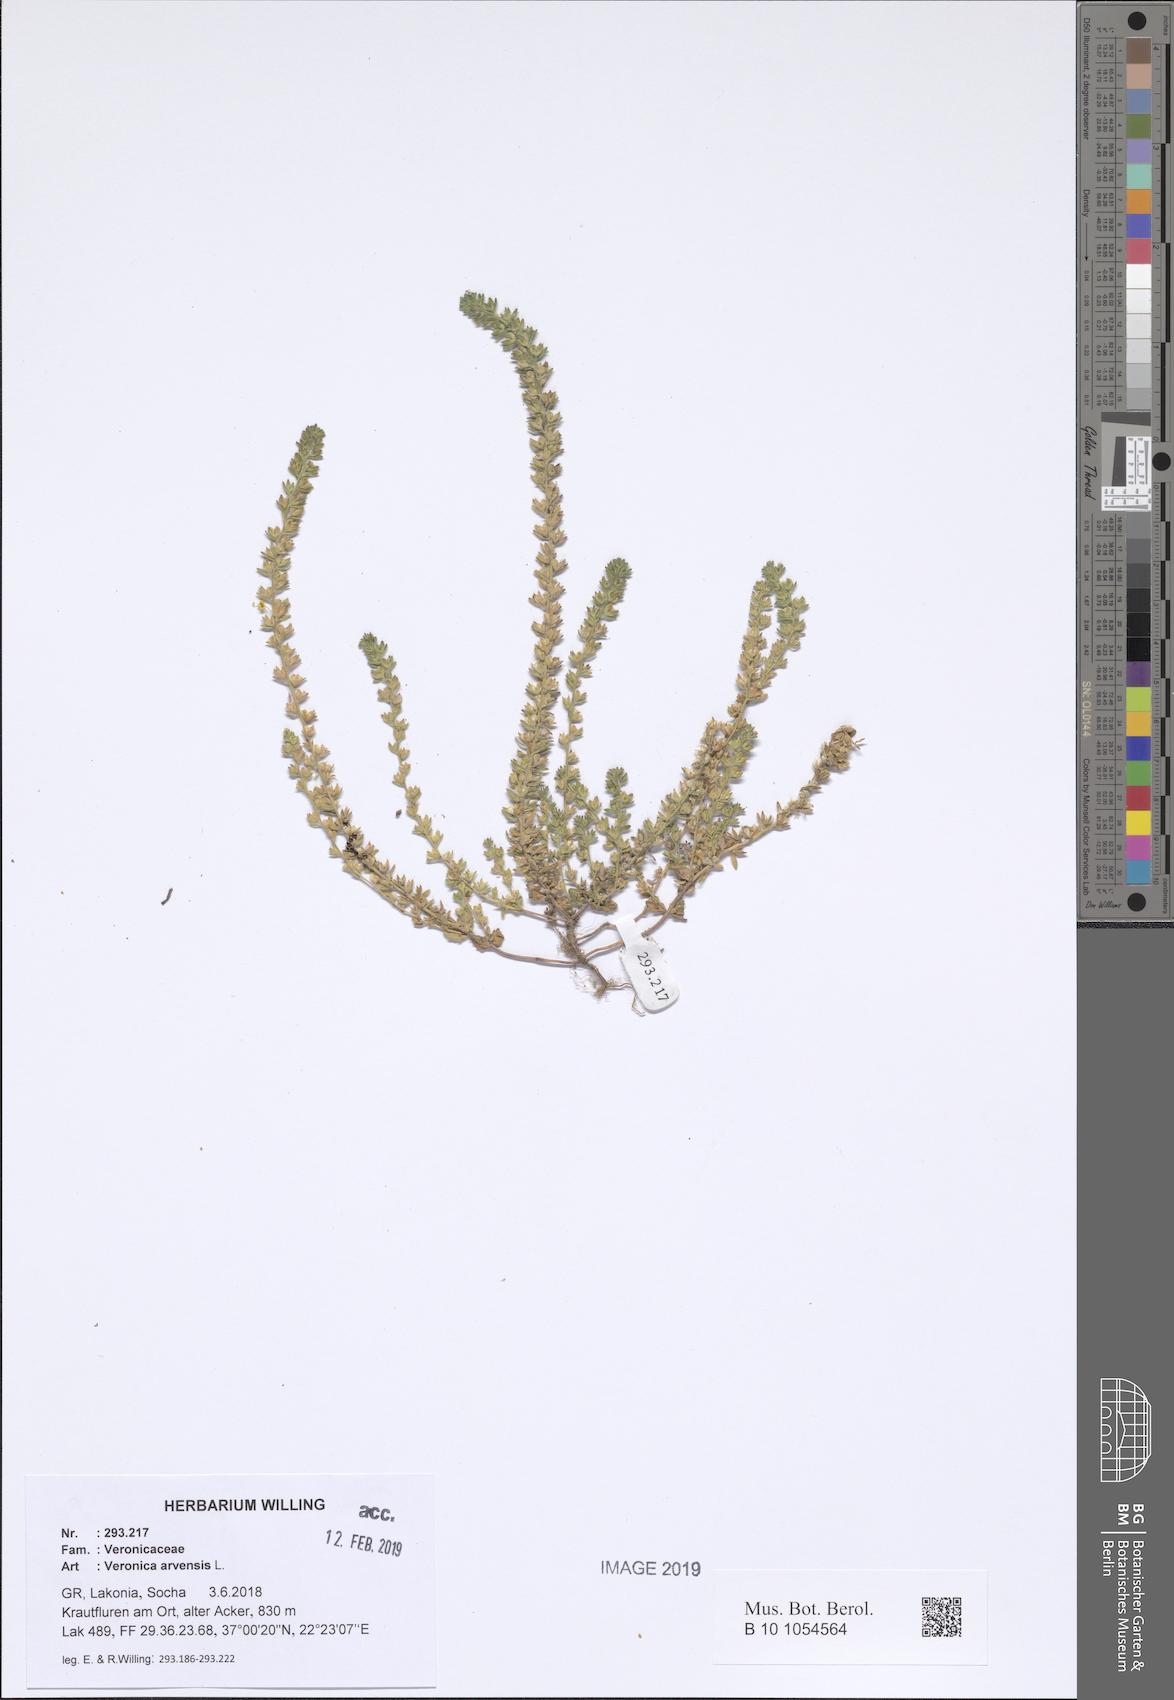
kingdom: Plantae
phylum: Tracheophyta
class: Magnoliopsida
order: Lamiales
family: Plantaginaceae
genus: Veronica
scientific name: Veronica arvensis
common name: Corn speedwell
